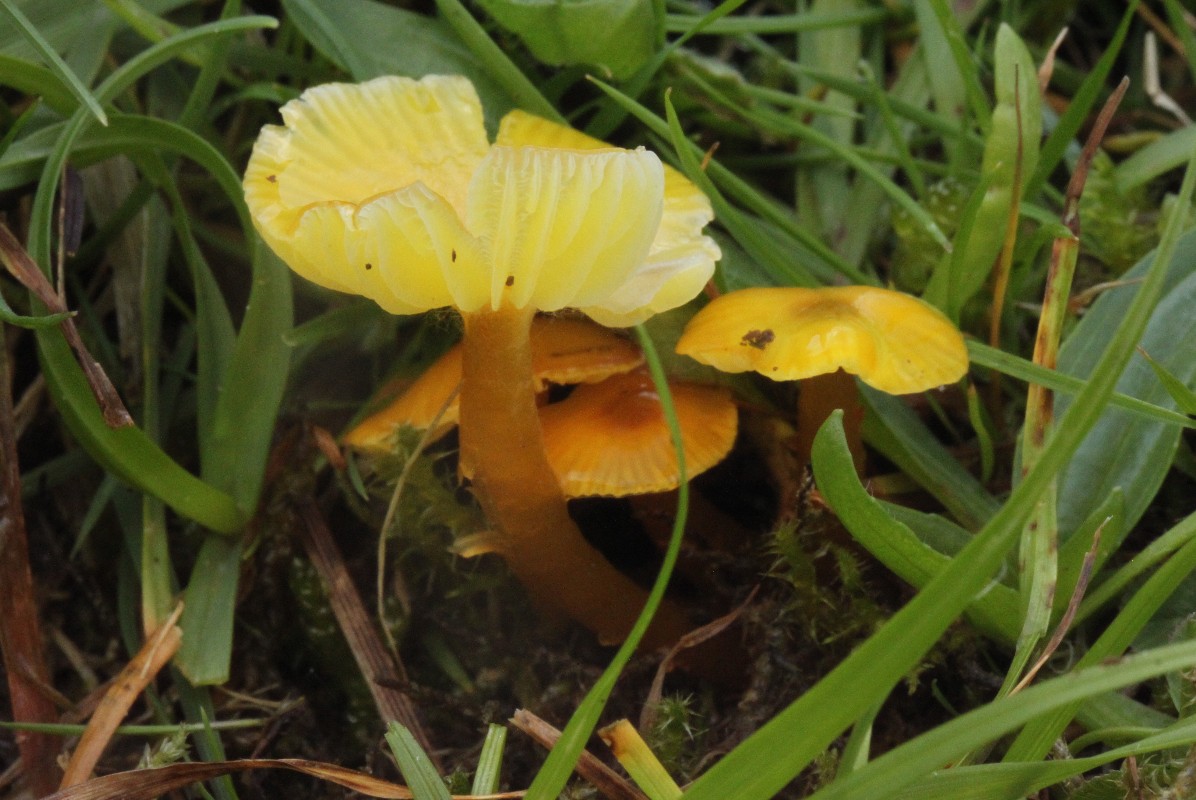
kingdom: Fungi
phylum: Basidiomycota
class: Agaricomycetes
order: Agaricales
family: Hygrophoraceae
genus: Hygrocybe
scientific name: Hygrocybe glutinipes
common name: slimstokket vokshat
